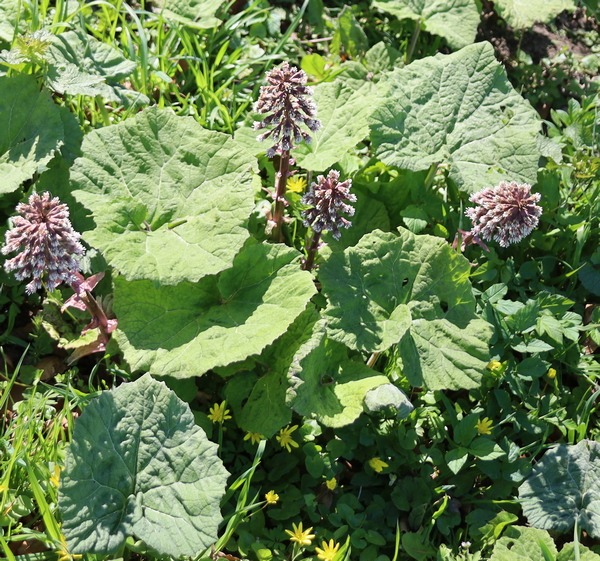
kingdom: Plantae
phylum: Tracheophyta
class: Magnoliopsida
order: Asterales
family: Asteraceae
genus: Petasites
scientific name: Petasites hybridus
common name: Rød hestehov
